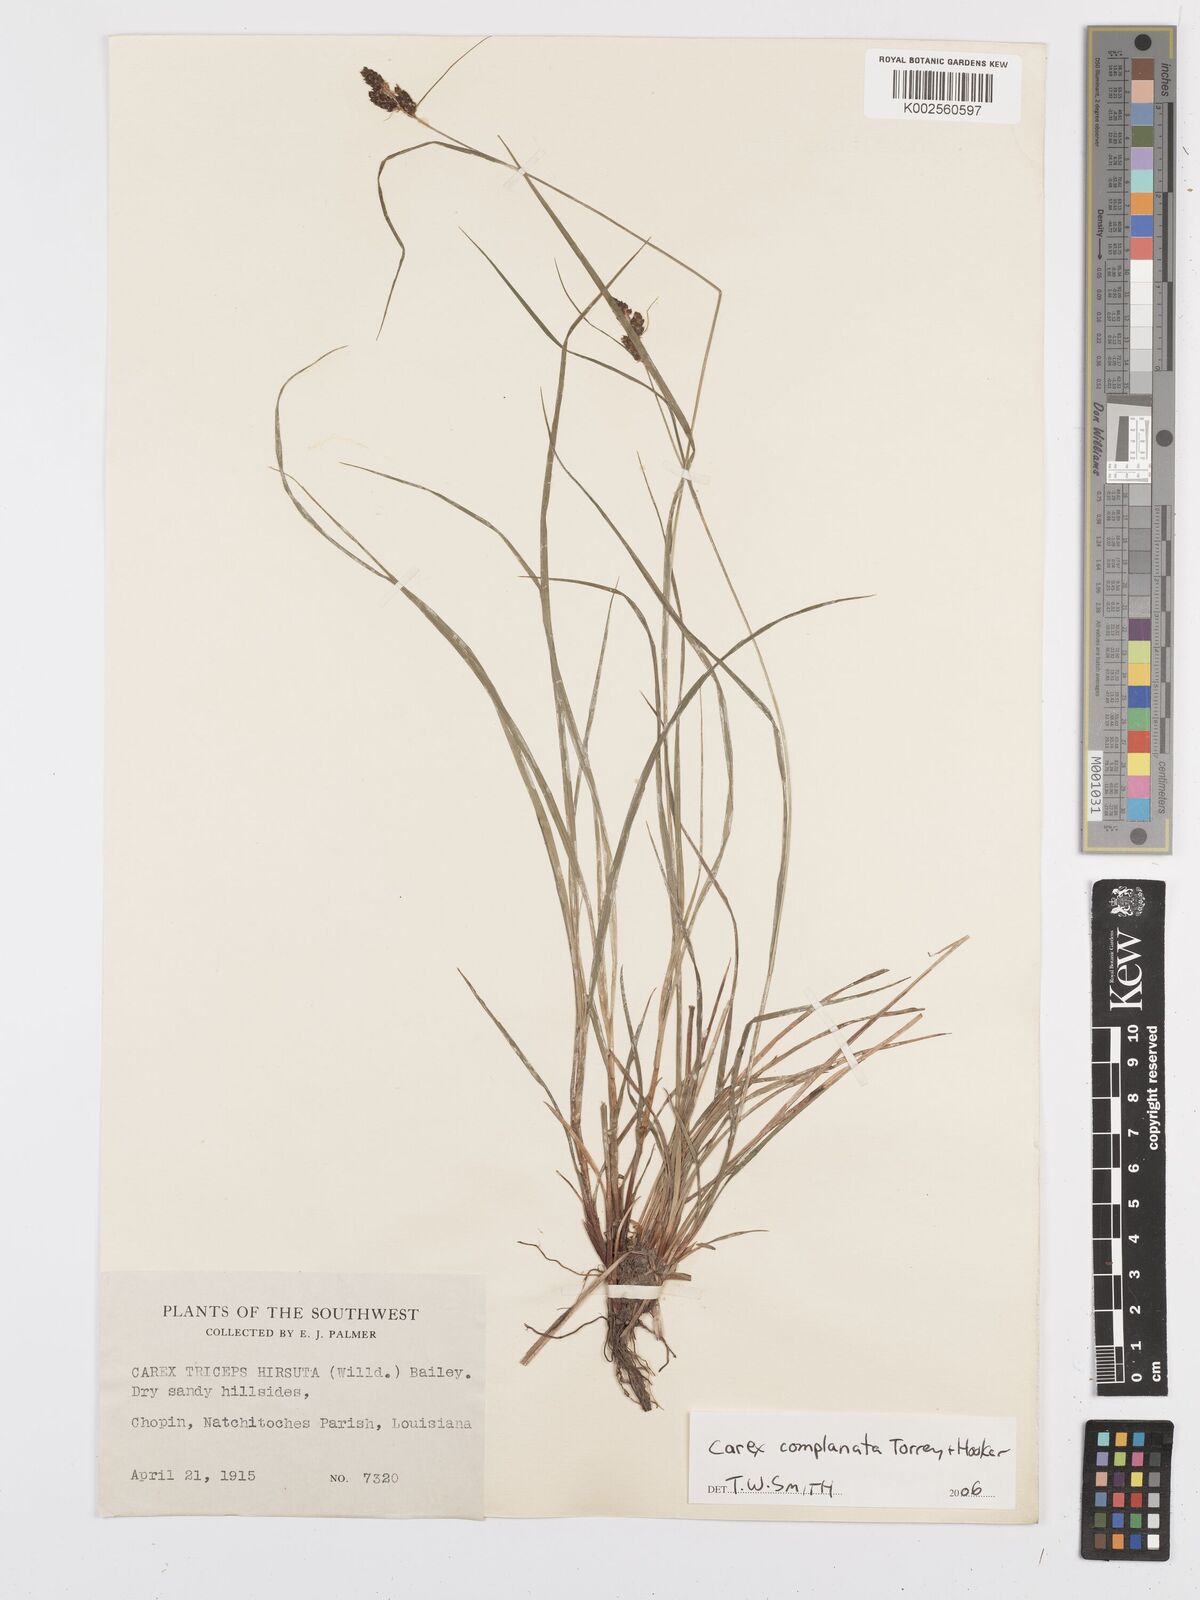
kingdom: Plantae
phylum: Tracheophyta
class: Liliopsida
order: Poales
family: Cyperaceae
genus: Carex
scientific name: Carex complanata
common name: Hirsute sedge
